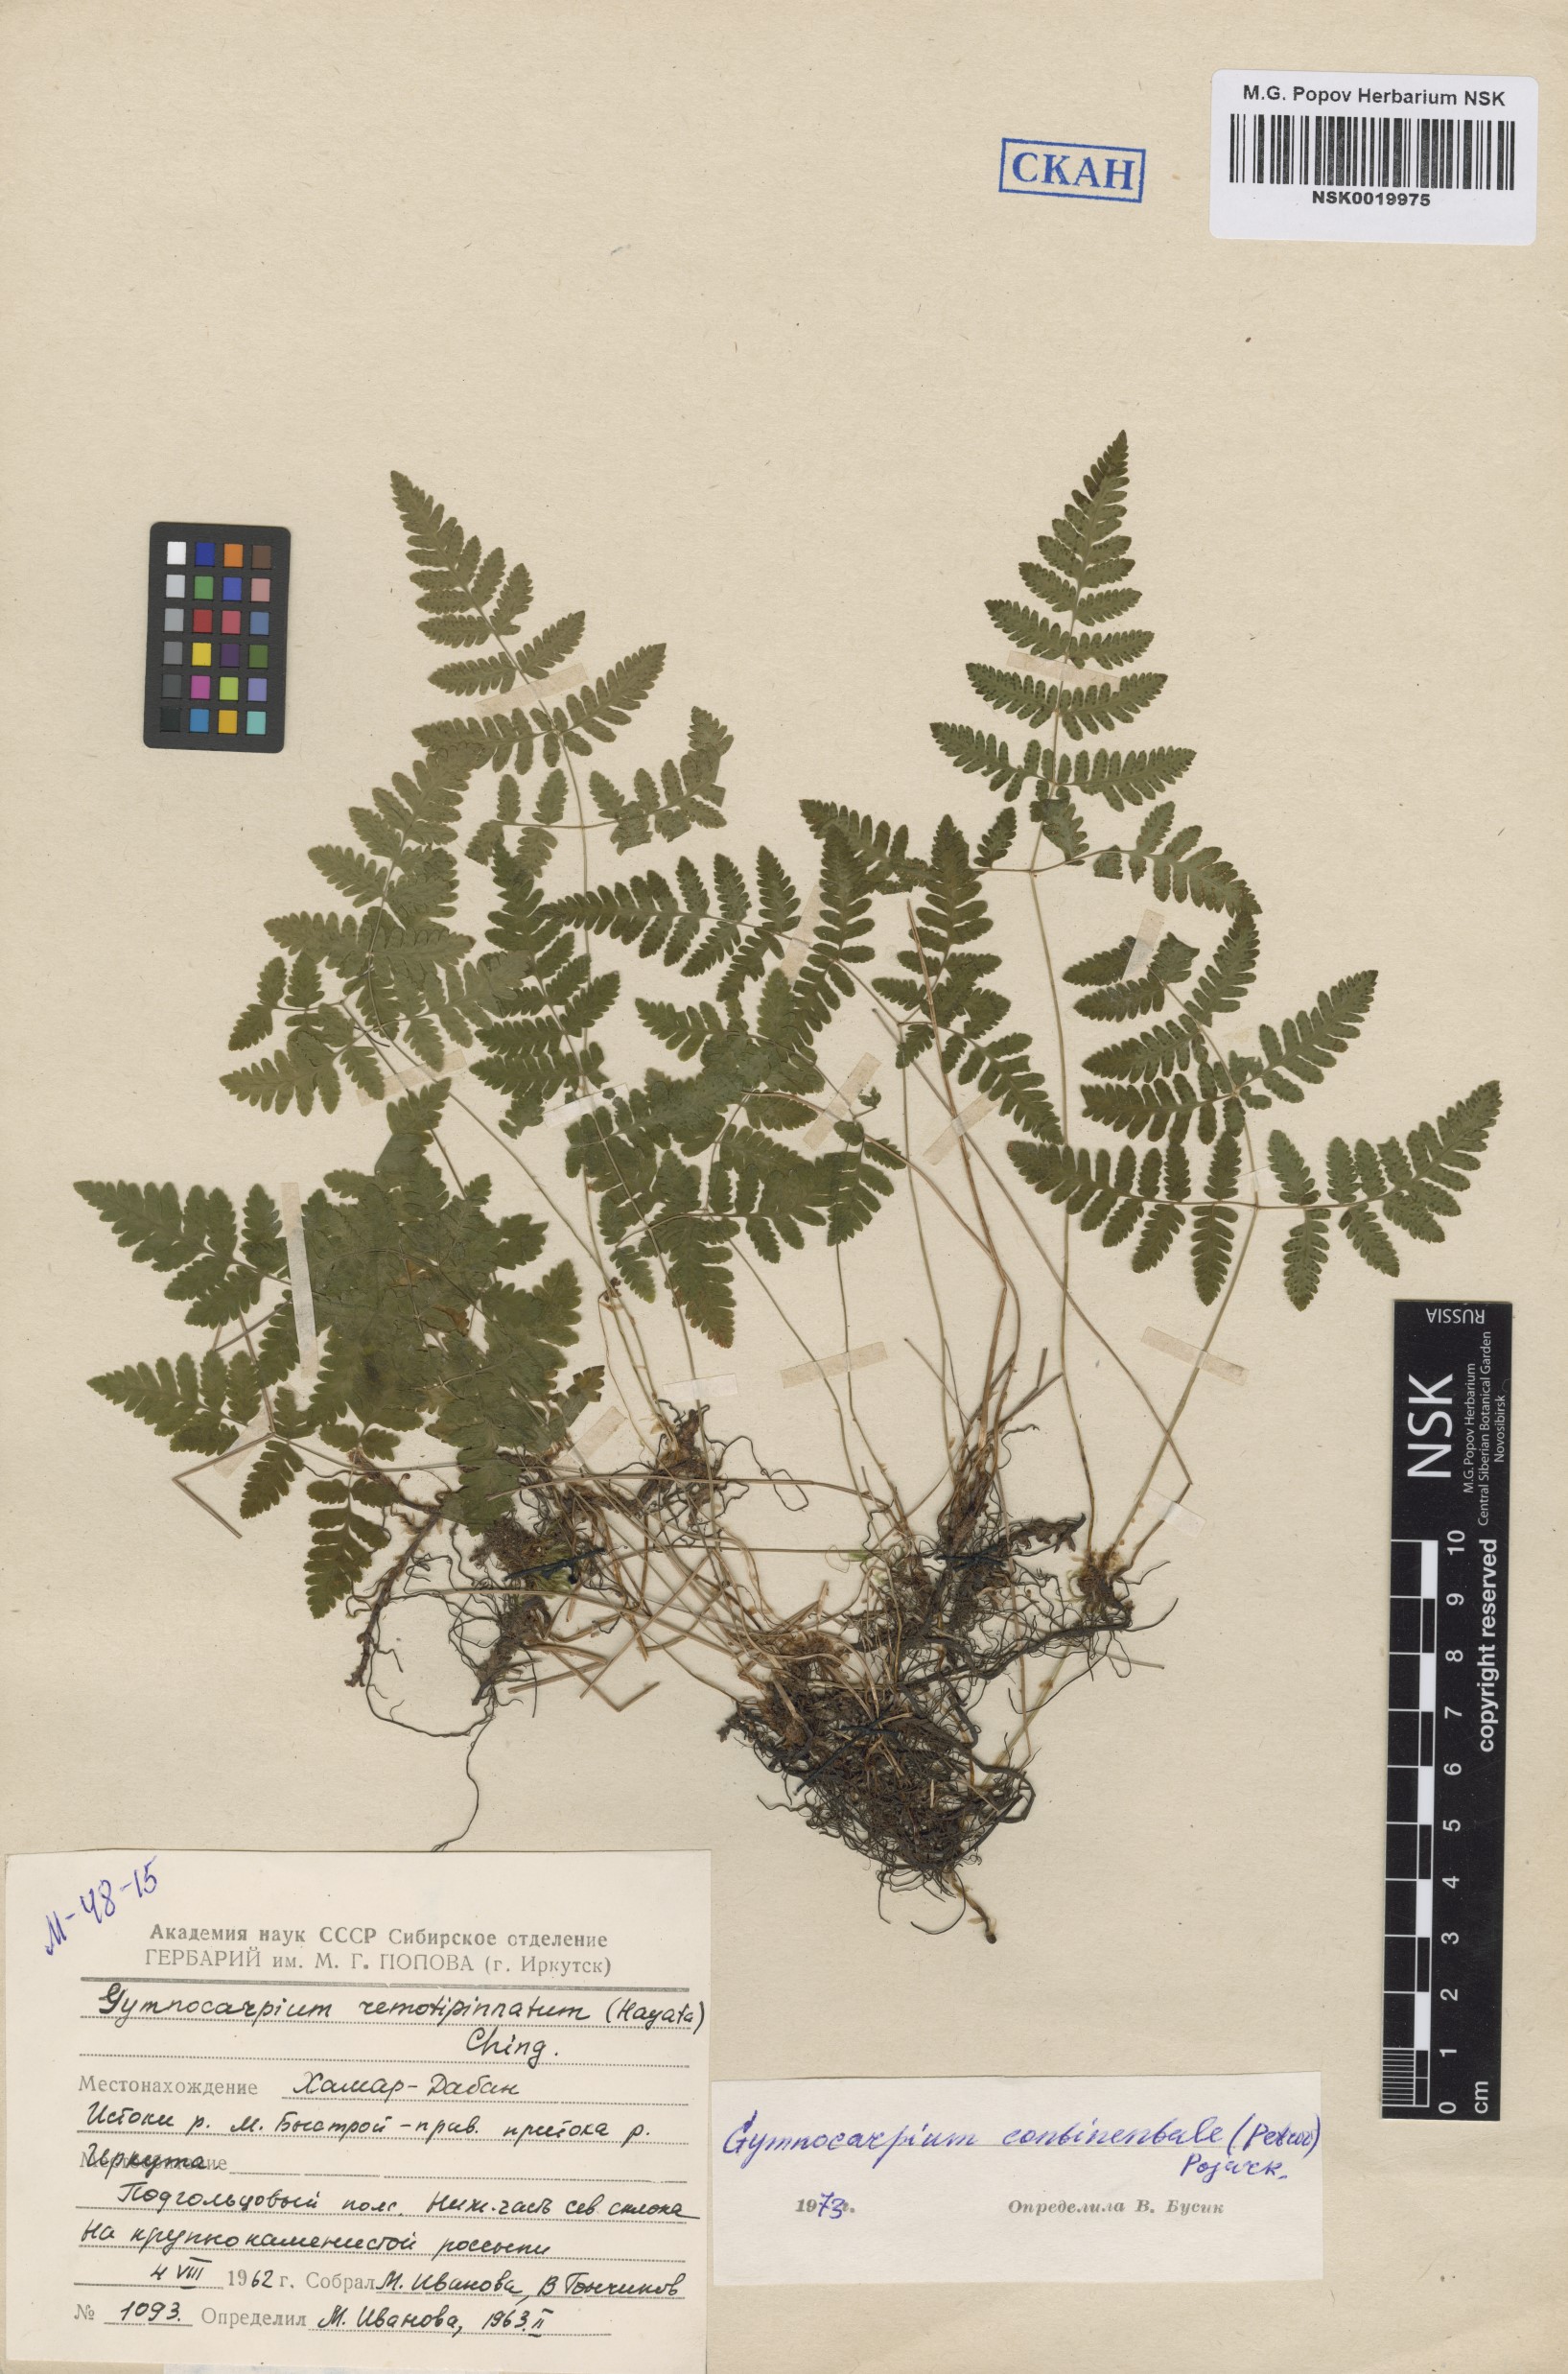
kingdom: Plantae
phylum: Tracheophyta
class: Polypodiopsida
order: Polypodiales
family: Cystopteridaceae
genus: Gymnocarpium
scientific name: Gymnocarpium continentale
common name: Asian oak fern
